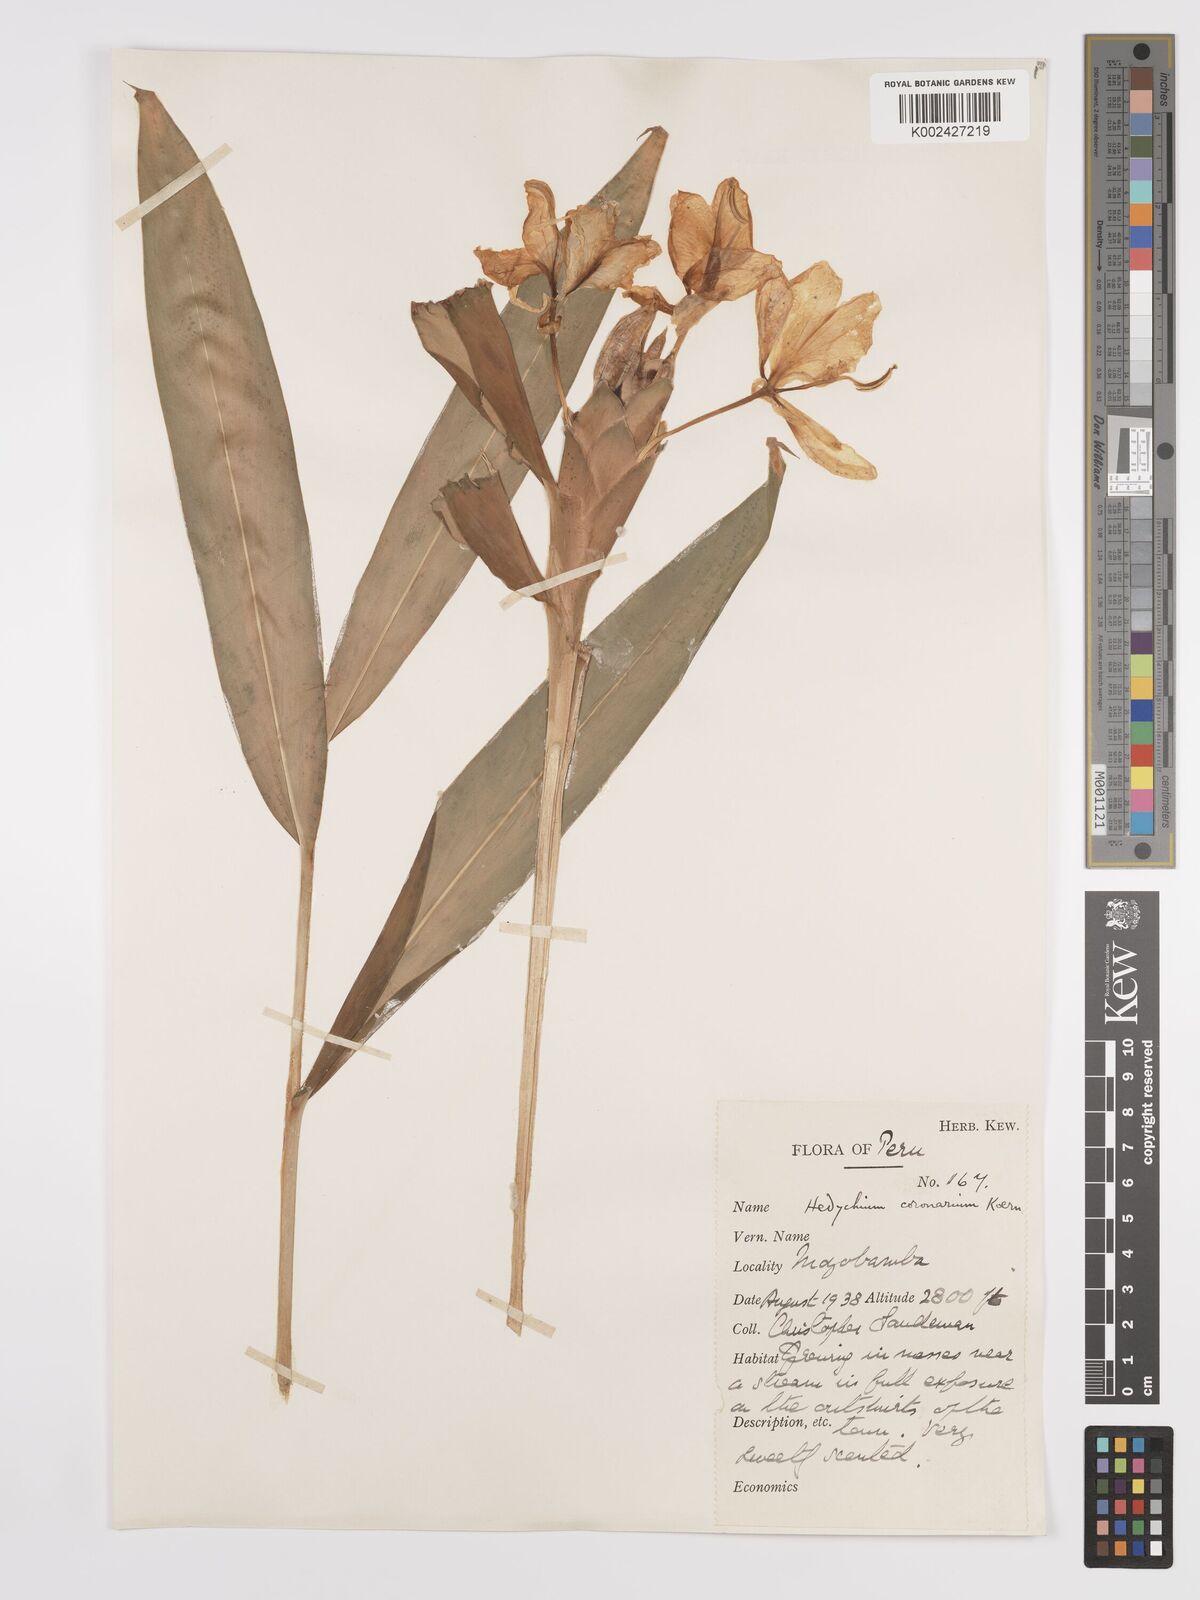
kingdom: Plantae
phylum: Tracheophyta
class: Liliopsida
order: Zingiberales
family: Zingiberaceae
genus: Hedychium
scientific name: Hedychium coronarium
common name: White garland-lily
